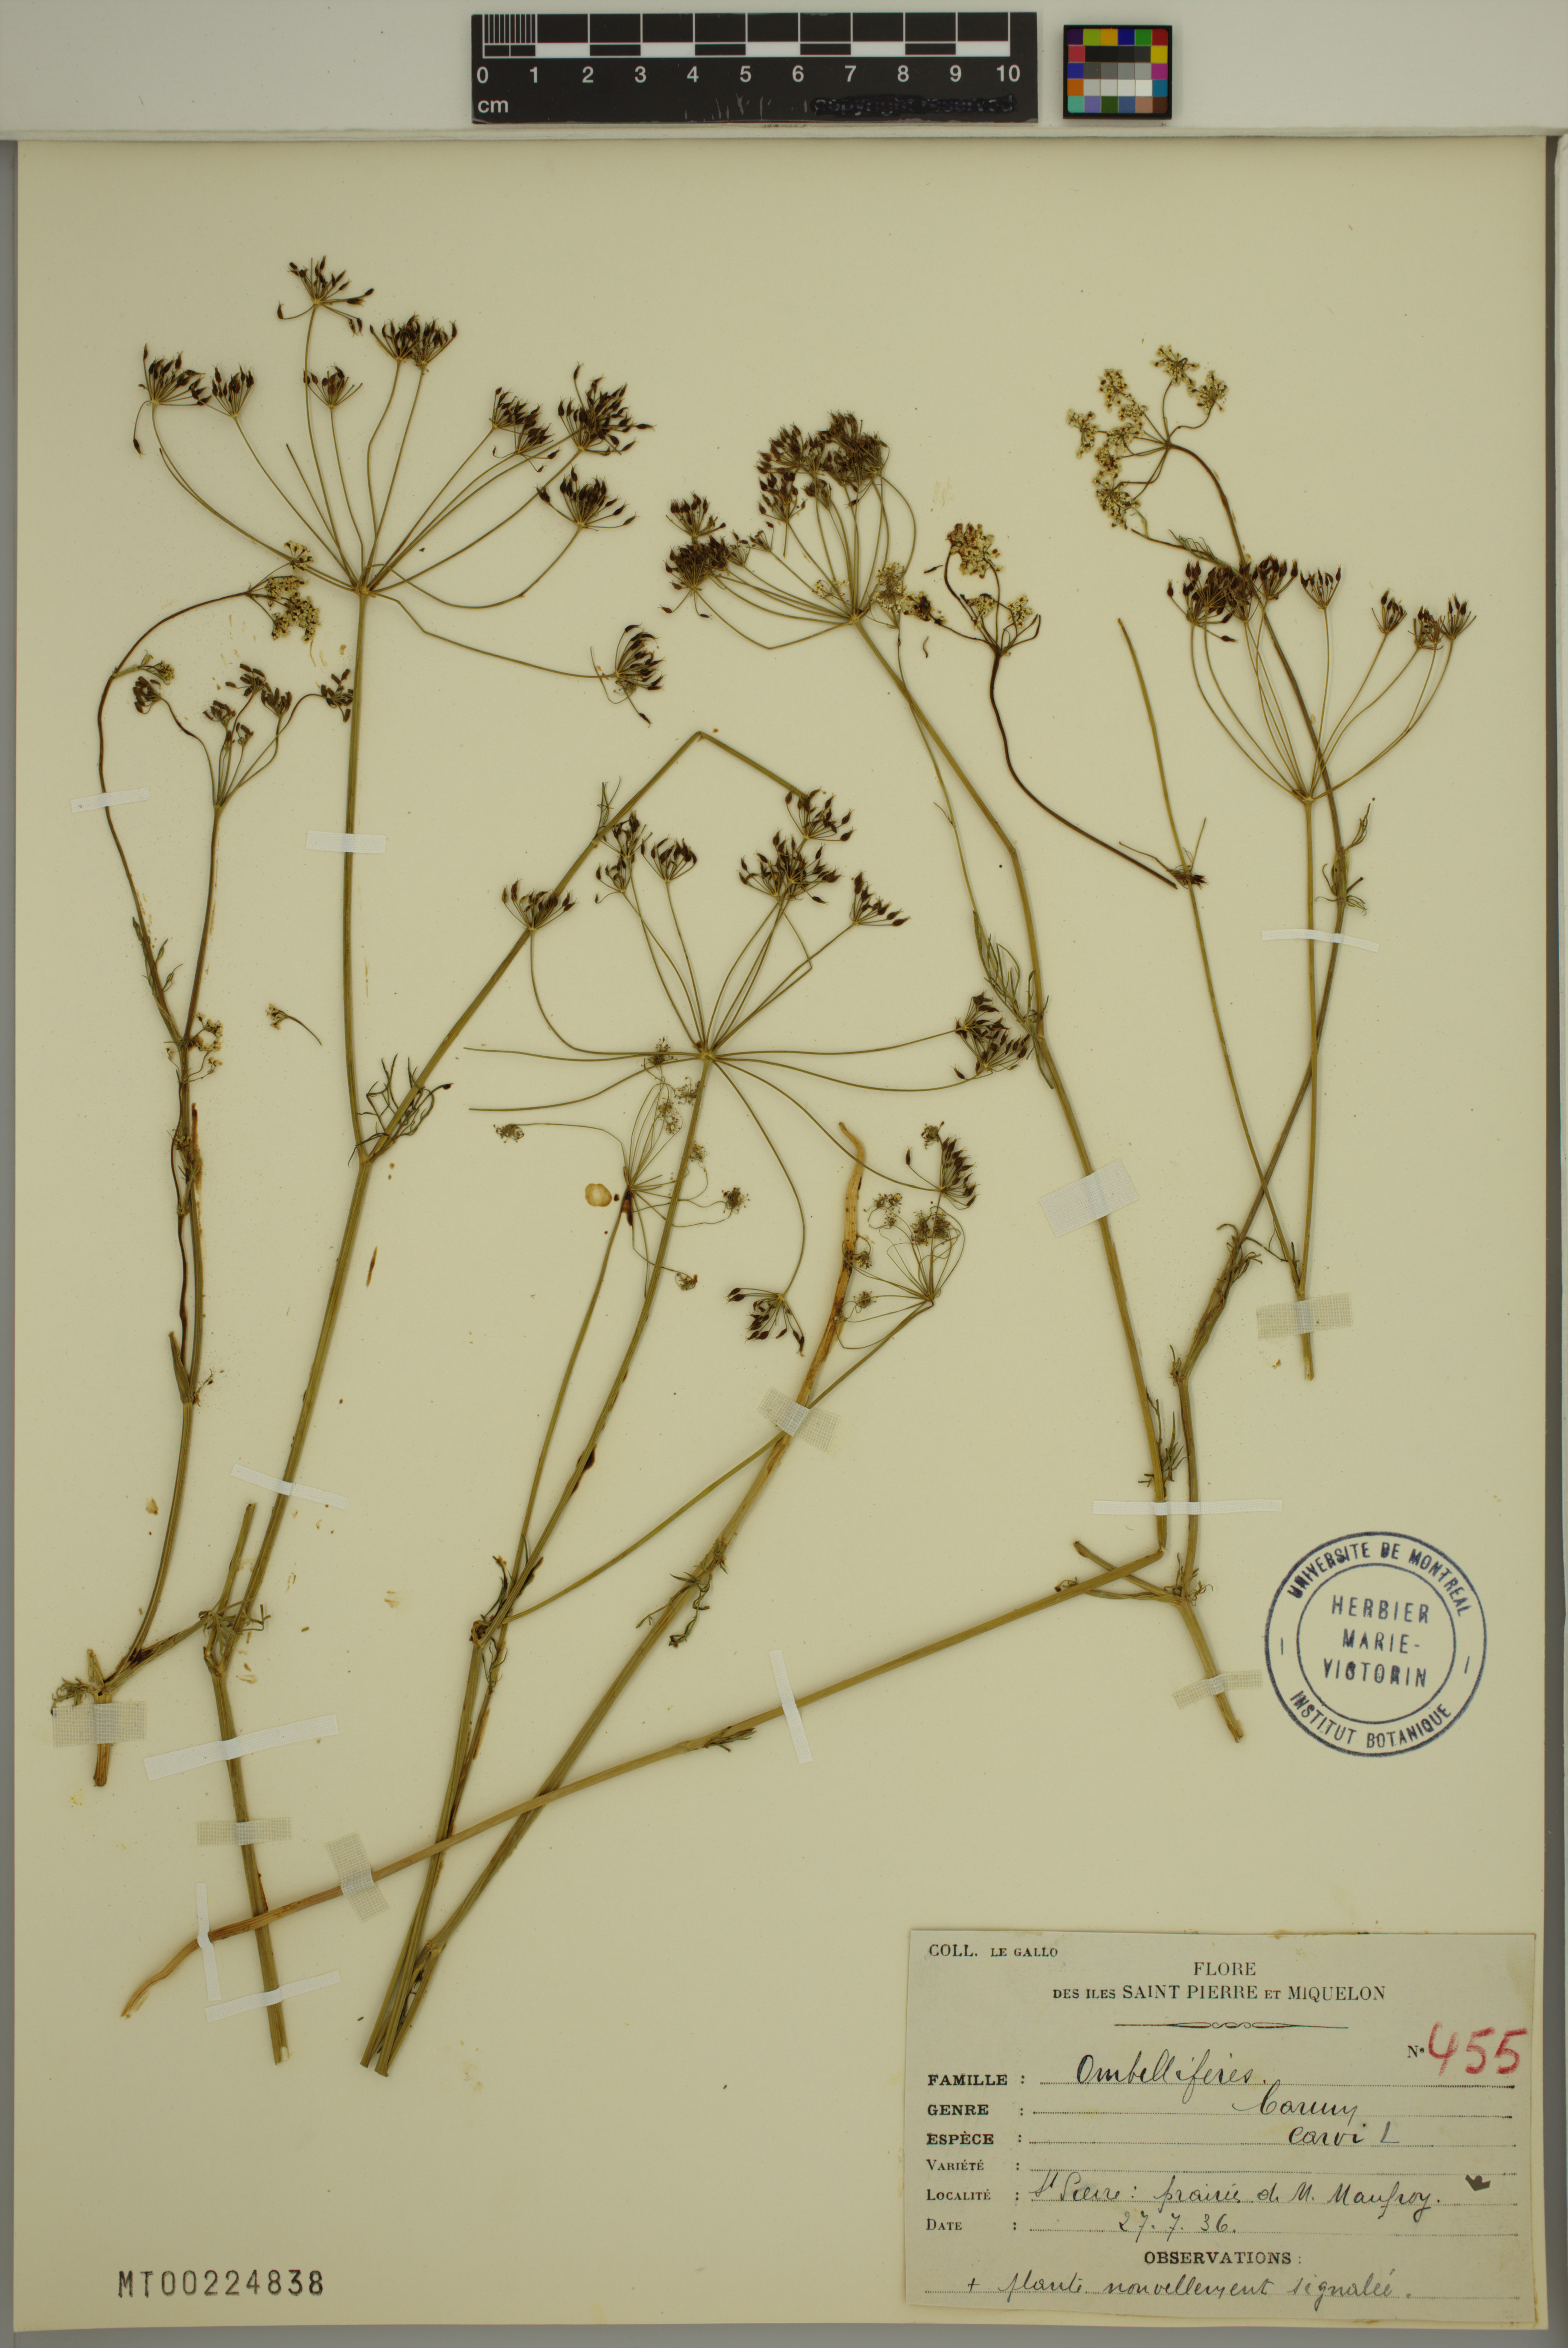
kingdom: Plantae
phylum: Tracheophyta
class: Magnoliopsida
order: Apiales
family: Apiaceae
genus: Carum
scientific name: Carum carvi
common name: Caraway
